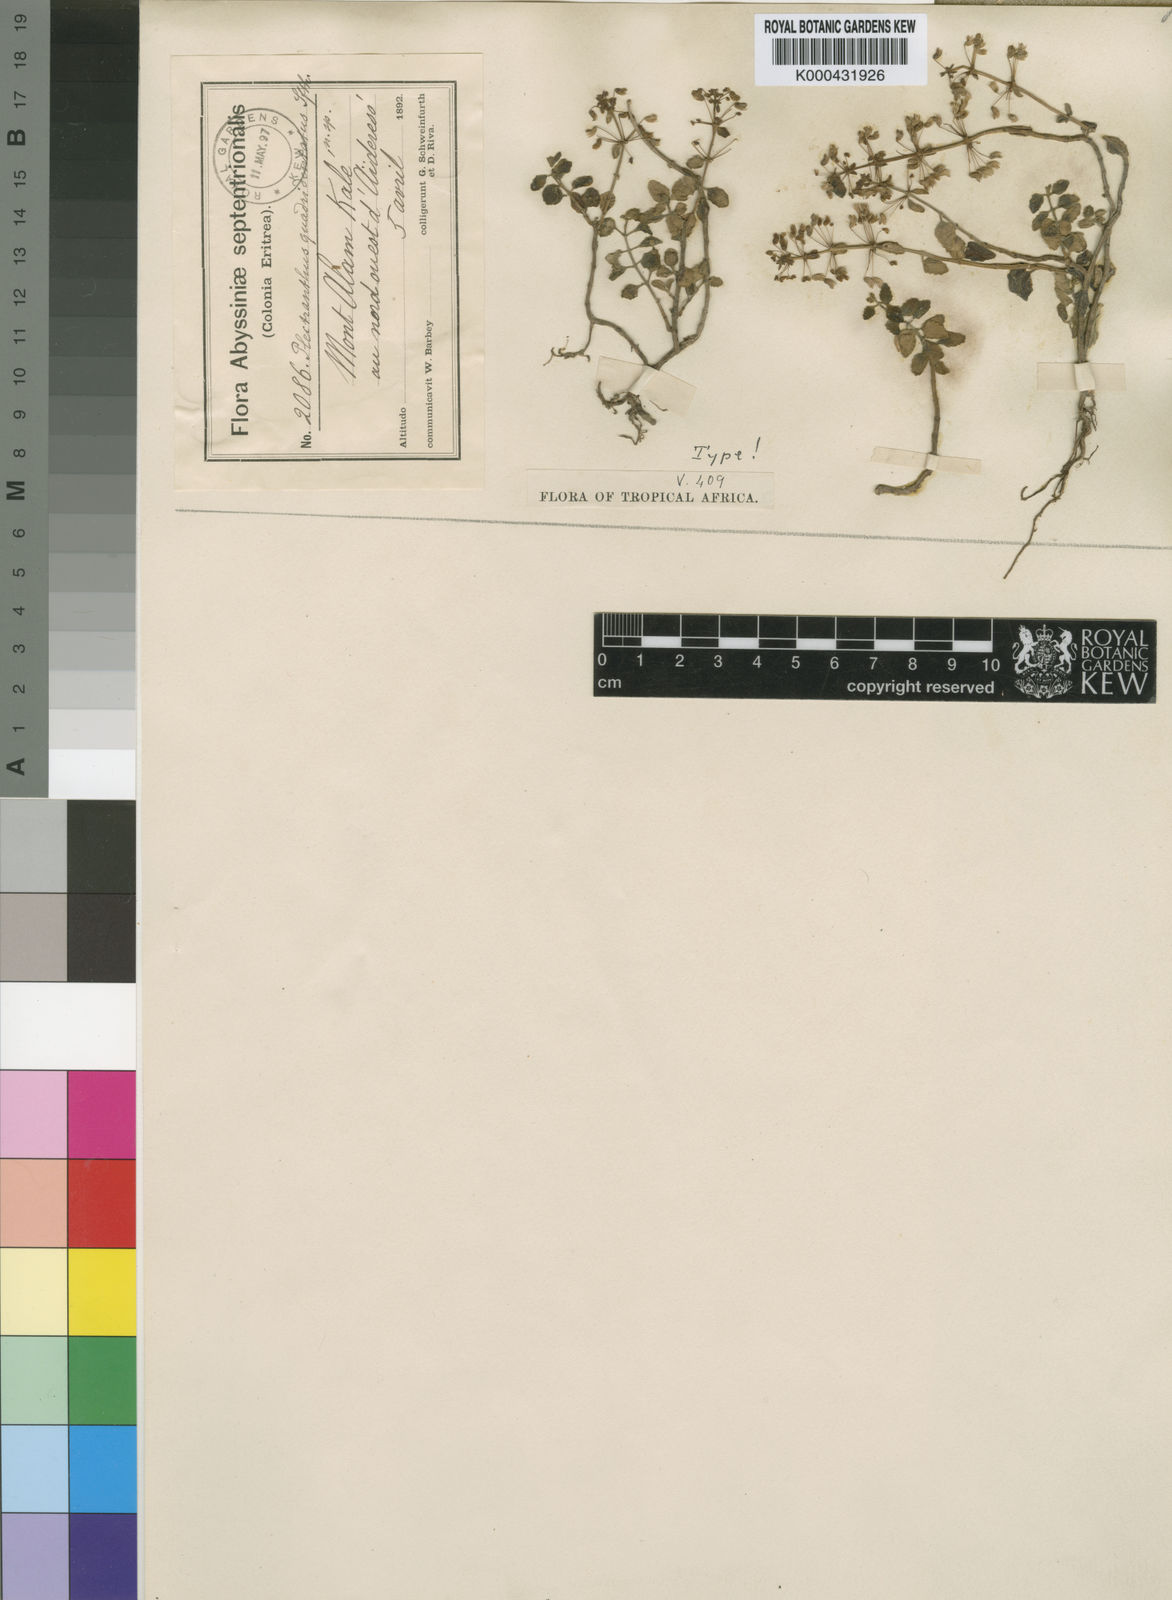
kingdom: Plantae
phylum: Tracheophyta
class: Magnoliopsida
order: Lamiales
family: Lamiaceae
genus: Plectranthus
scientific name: Plectranthus
